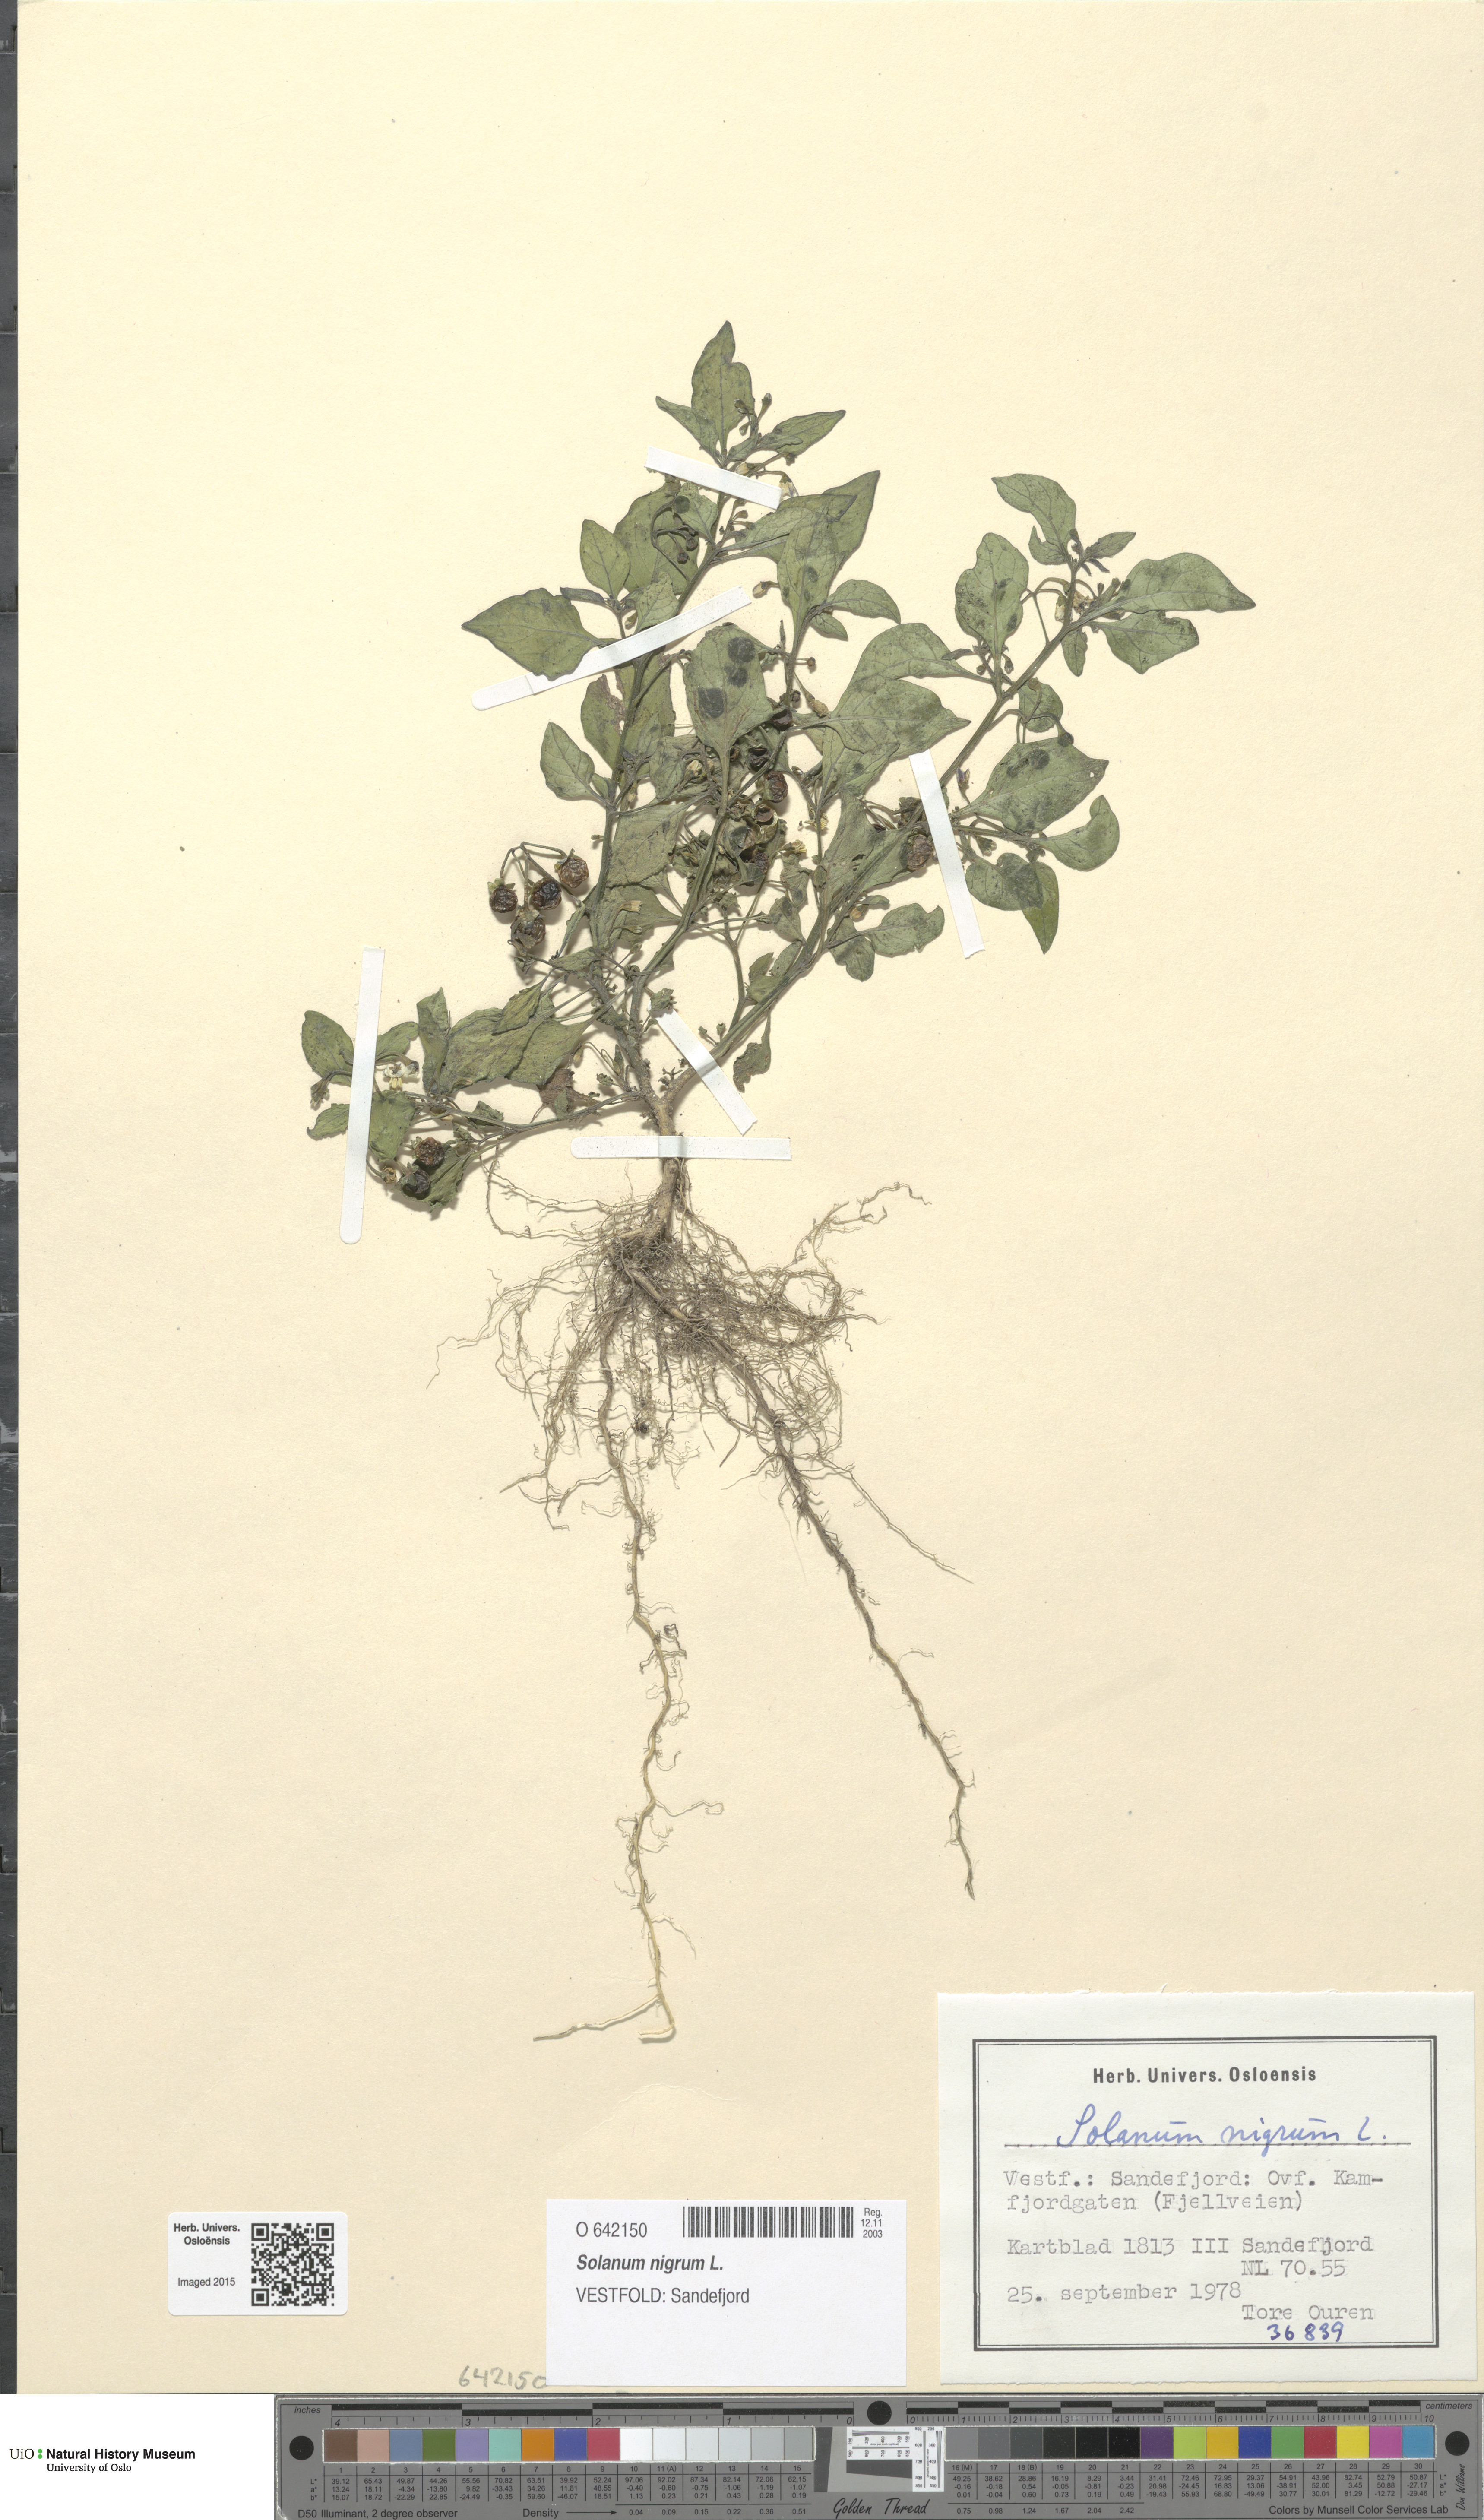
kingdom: Plantae
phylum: Tracheophyta
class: Magnoliopsida
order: Solanales
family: Solanaceae
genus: Solanum
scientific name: Solanum nigrum
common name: Black nightshade
